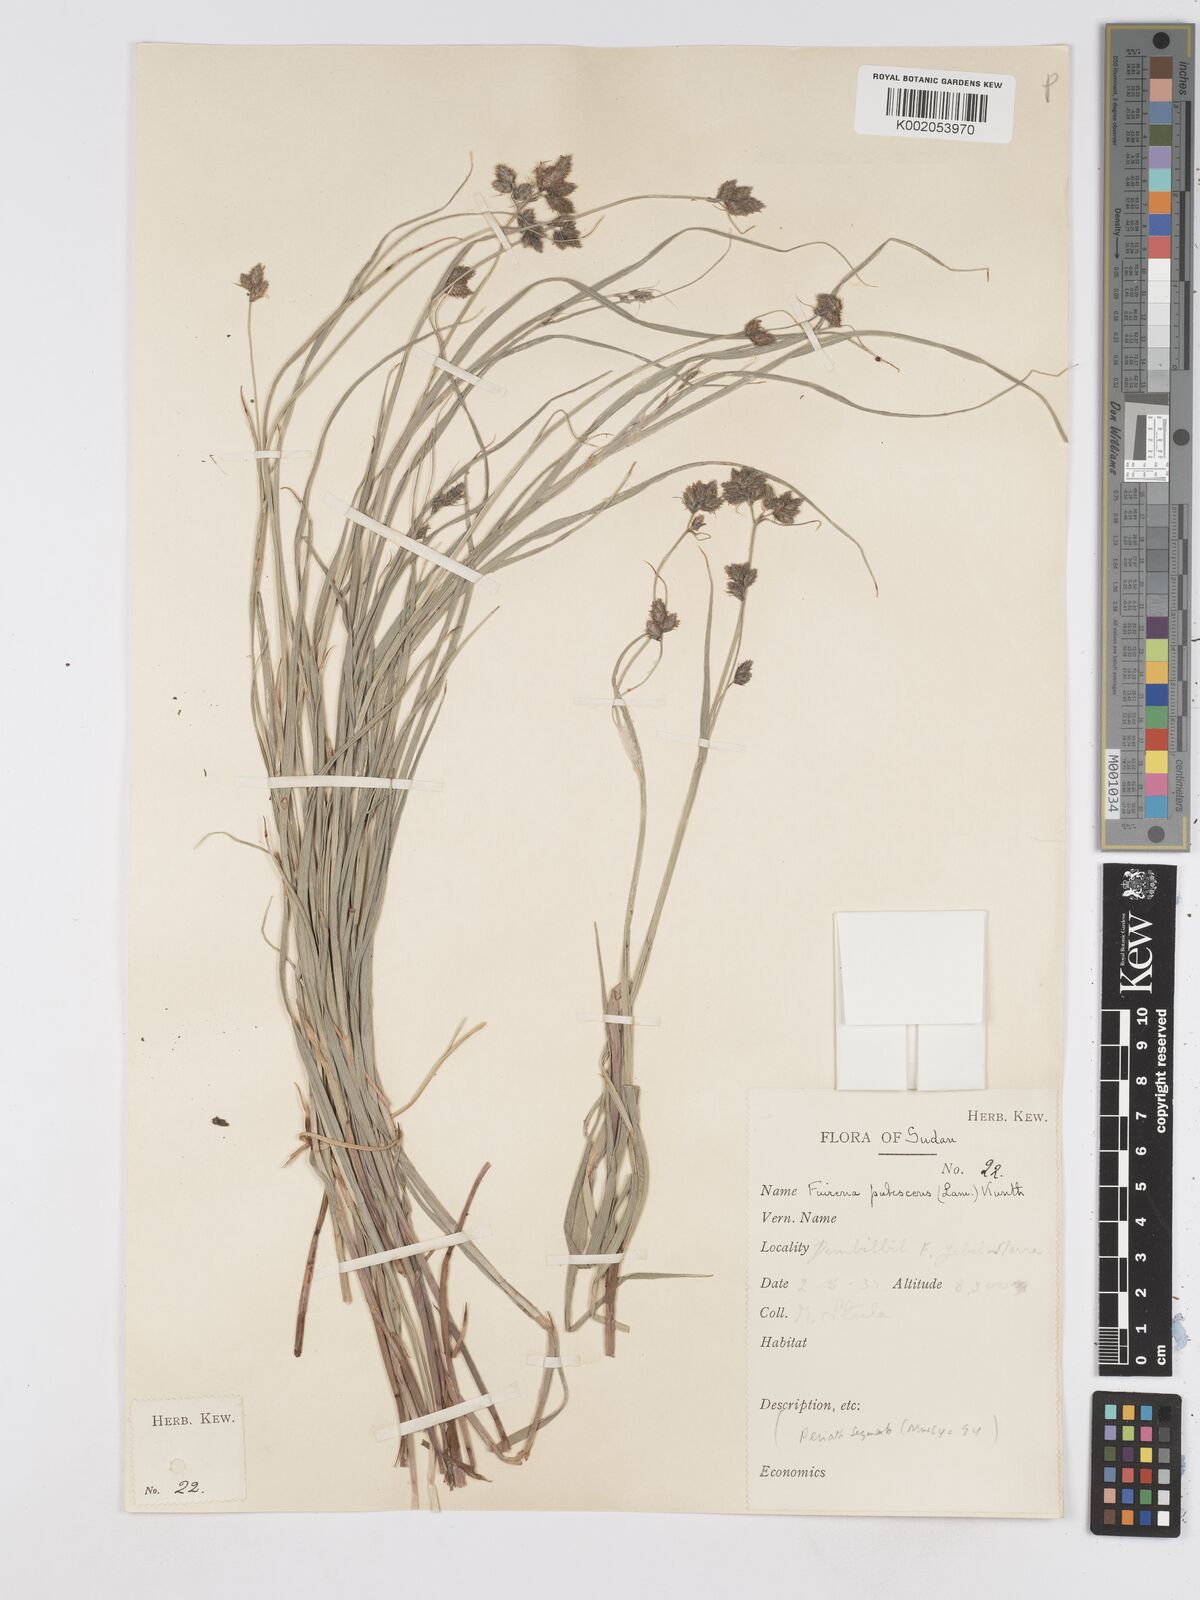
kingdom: Plantae
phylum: Tracheophyta
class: Liliopsida
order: Poales
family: Cyperaceae
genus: Fuirena
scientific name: Fuirena pubescens
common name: Hairy sedge
